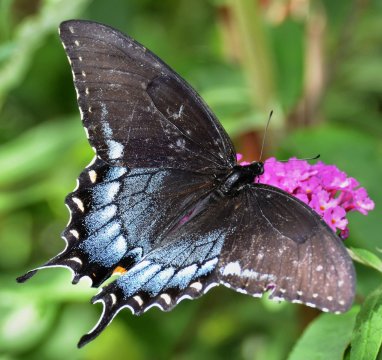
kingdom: Animalia
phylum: Arthropoda
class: Insecta
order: Lepidoptera
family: Papilionidae
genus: Pterourus
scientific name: Pterourus glaucus
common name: Eastern Tiger Swallowtail
